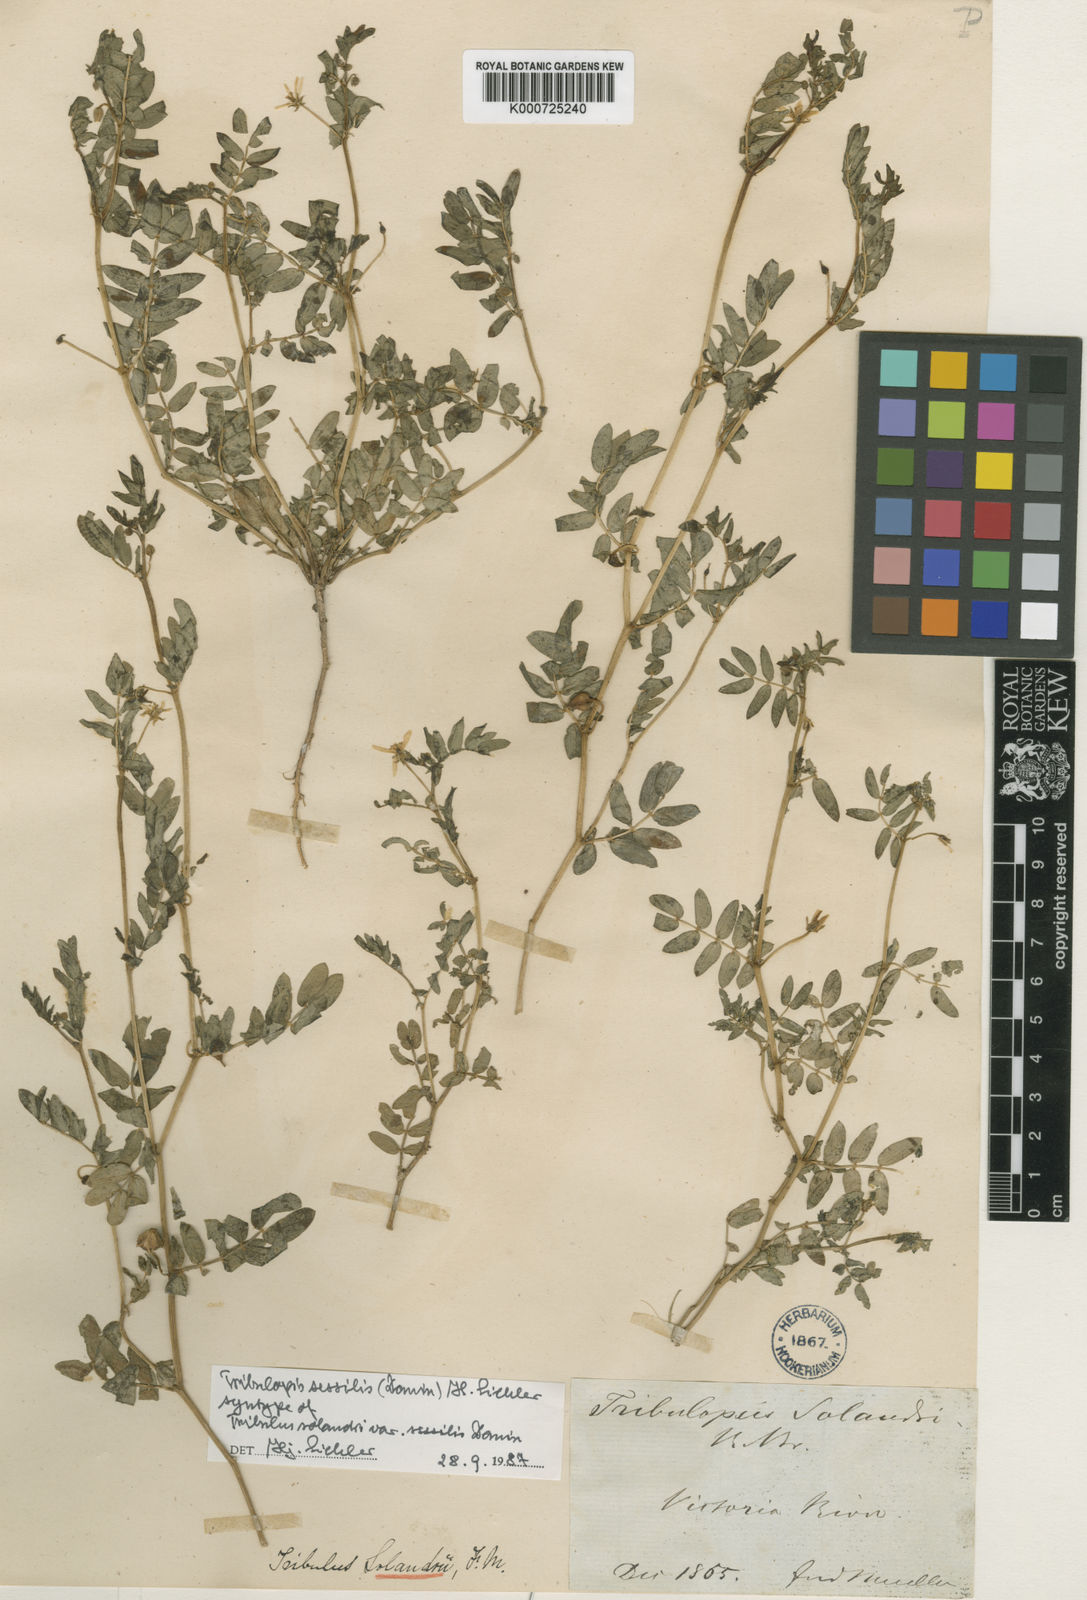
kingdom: Plantae
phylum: Tracheophyta
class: Magnoliopsida
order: Zygophyllales
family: Zygophyllaceae
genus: Tribulopis
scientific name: Tribulopis sessilis
